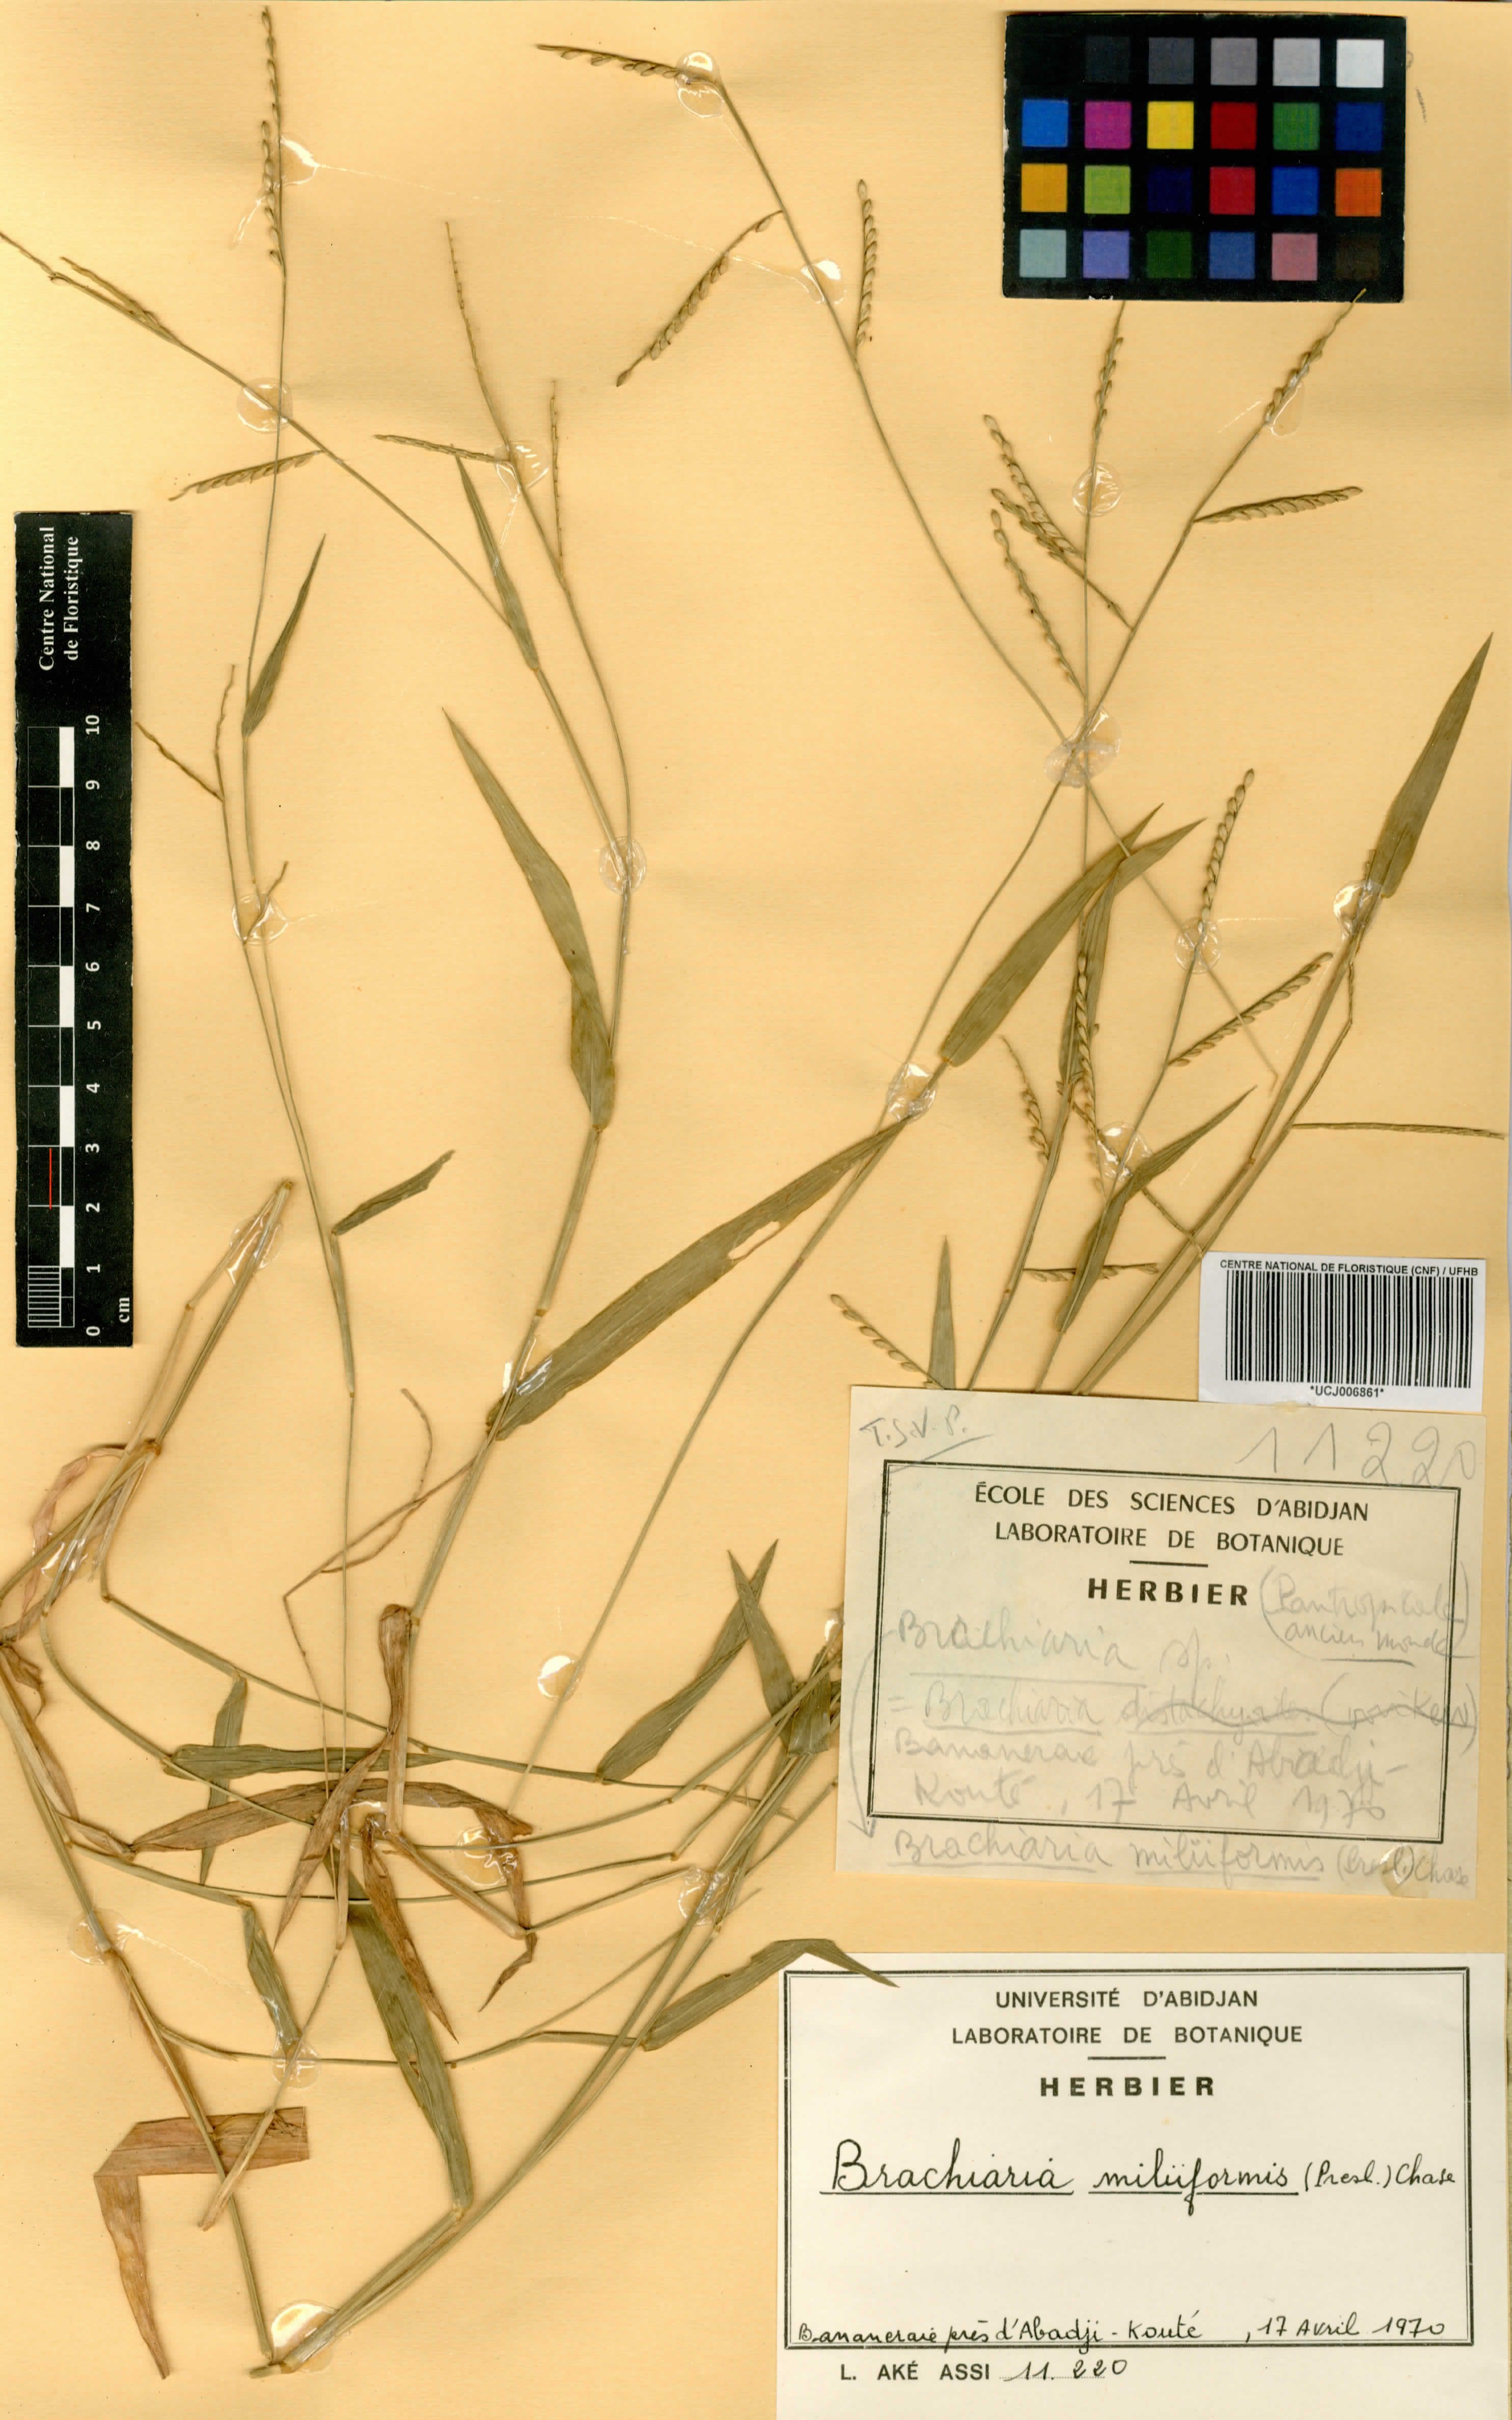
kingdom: Plantae
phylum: Tracheophyta
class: Liliopsida
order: Poales
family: Poaceae
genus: Urochloa
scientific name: Urochloa subquadripara
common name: Armgrass millet
